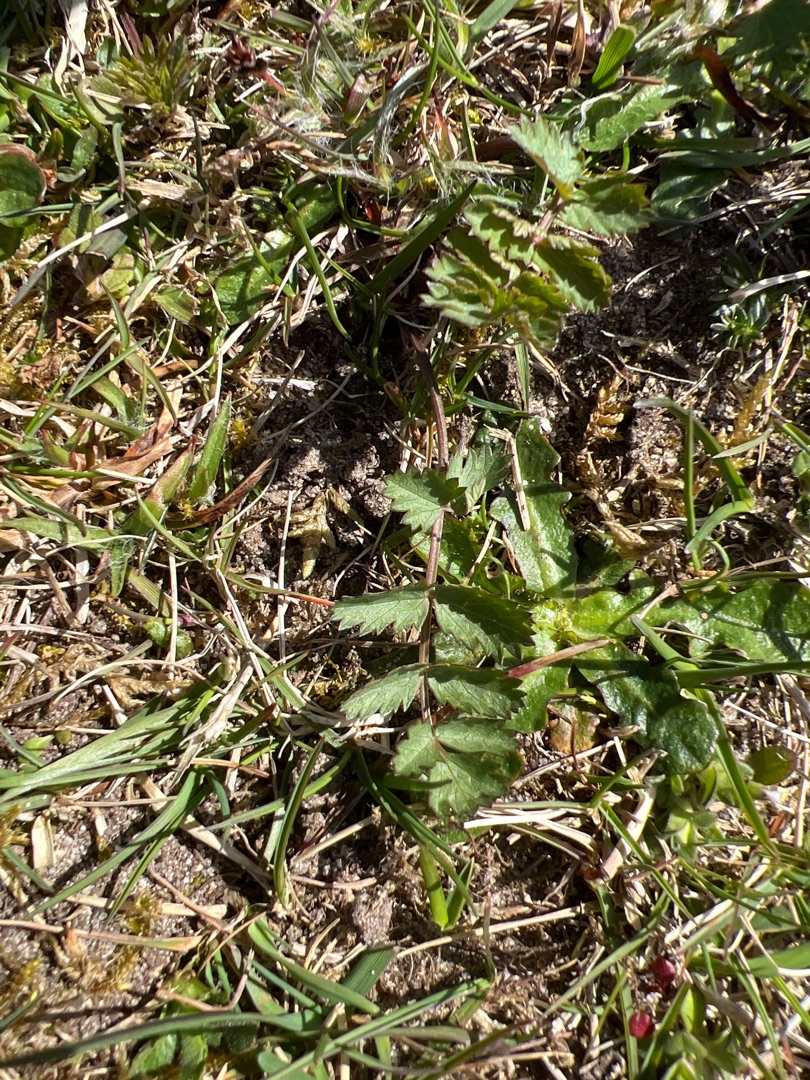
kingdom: Plantae
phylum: Tracheophyta
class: Magnoliopsida
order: Apiales
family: Apiaceae
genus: Pimpinella
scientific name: Pimpinella saxifraga
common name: Almindelig pimpinelle
